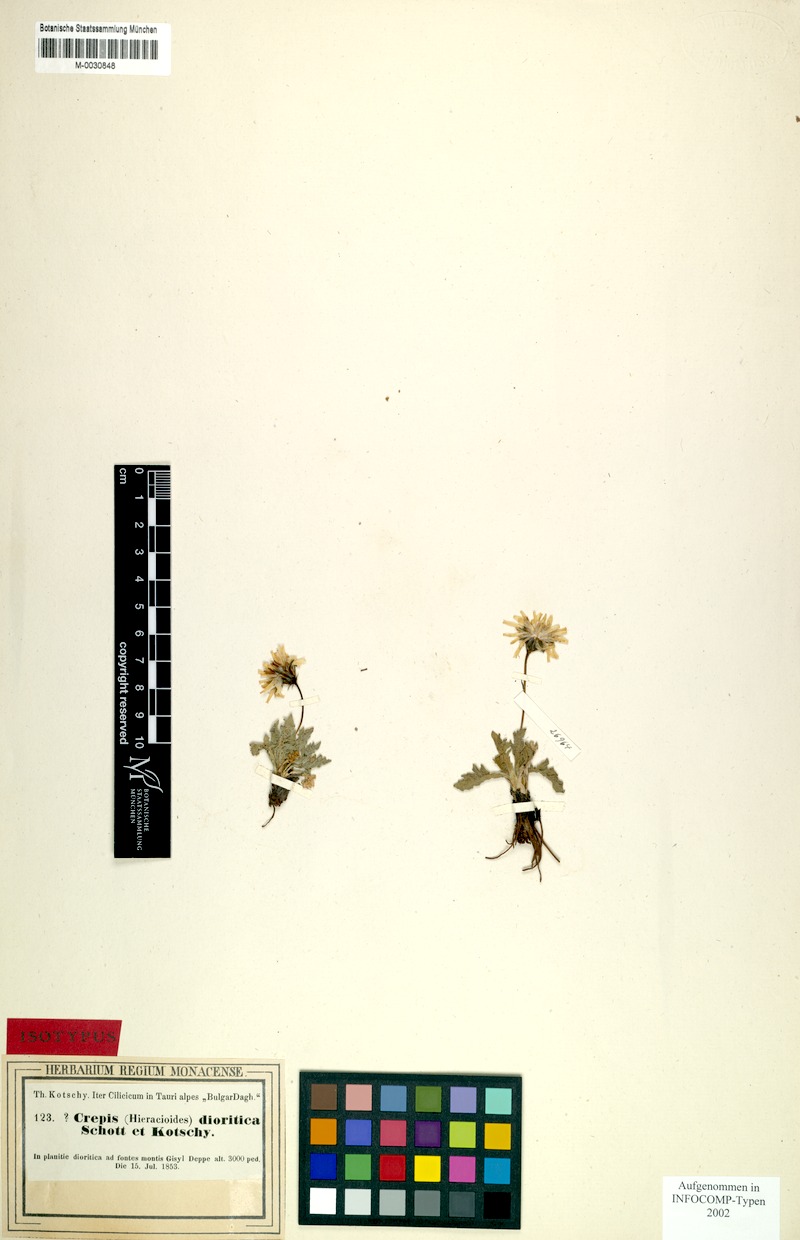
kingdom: Plantae
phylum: Tracheophyta
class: Magnoliopsida
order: Asterales
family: Asteraceae
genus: Crepis
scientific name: Crepis dioritica
